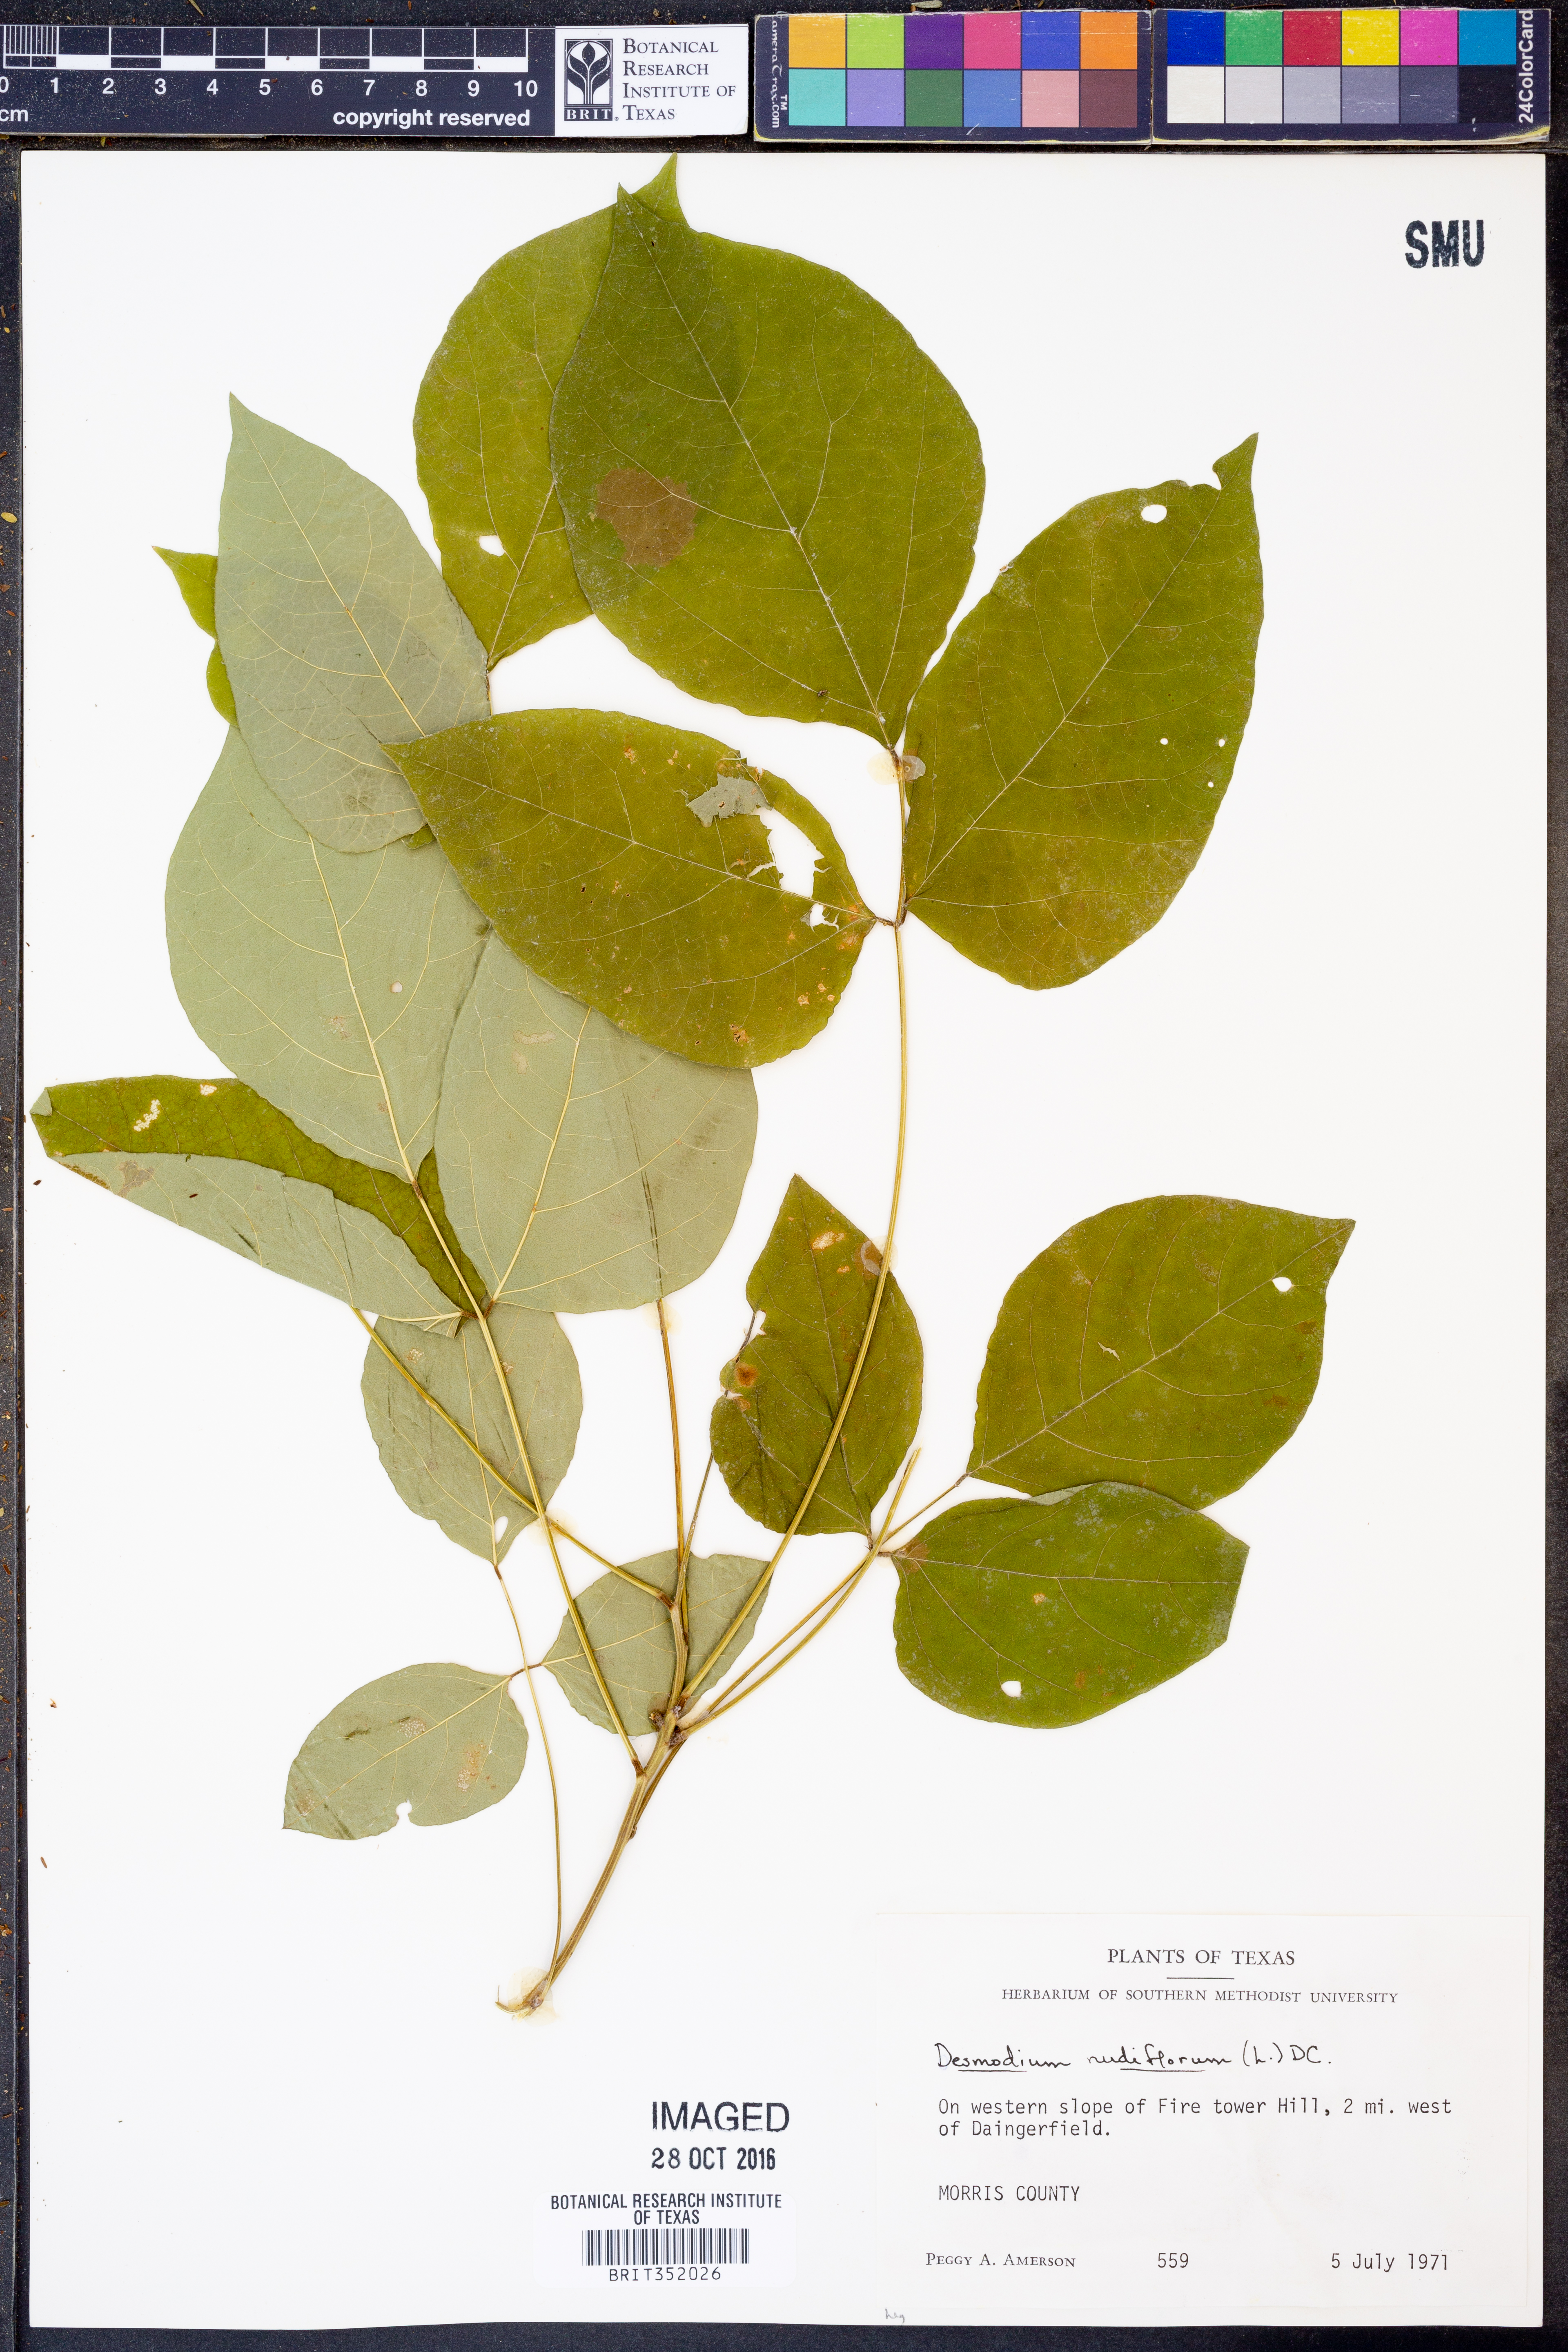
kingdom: Plantae
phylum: Tracheophyta
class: Magnoliopsida
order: Fabales
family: Fabaceae
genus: Hylodesmum
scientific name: Hylodesmum nudiflorum
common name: Bare-stemmed tick-trefoil
